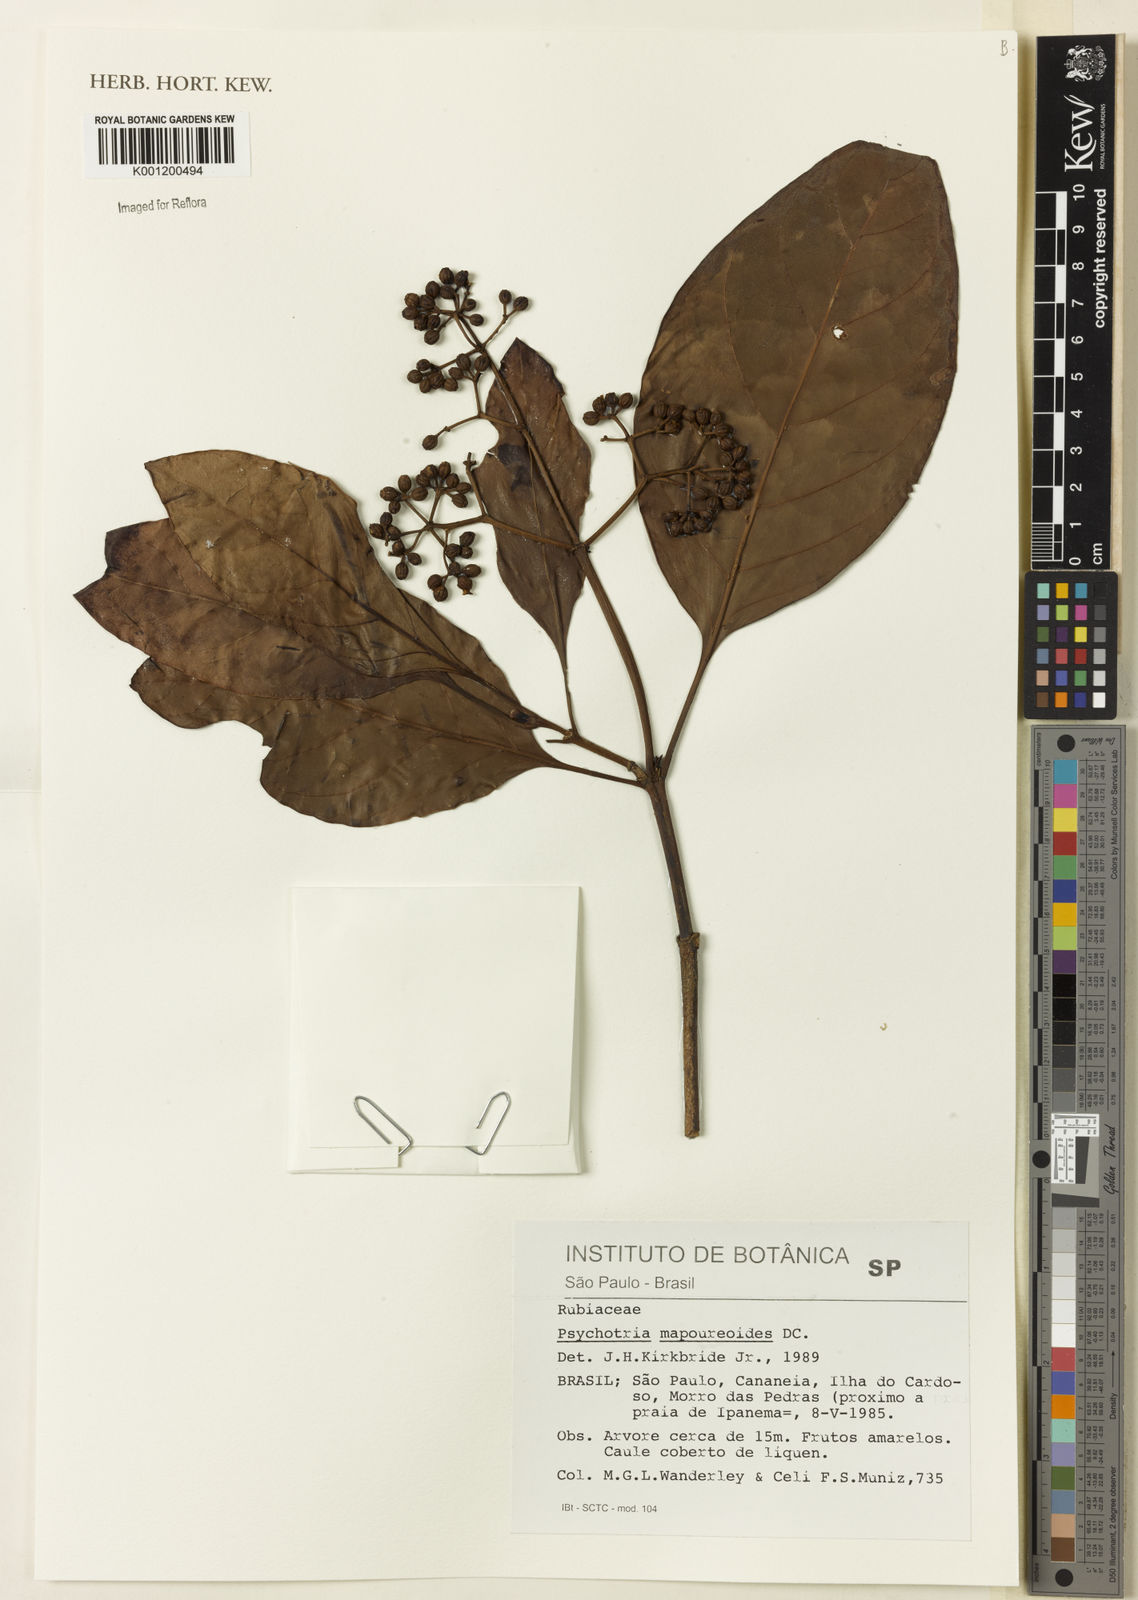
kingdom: Plantae
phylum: Tracheophyta
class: Magnoliopsida
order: Gentianales
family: Rubiaceae
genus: Psychotria
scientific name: Psychotria carthagenensis
